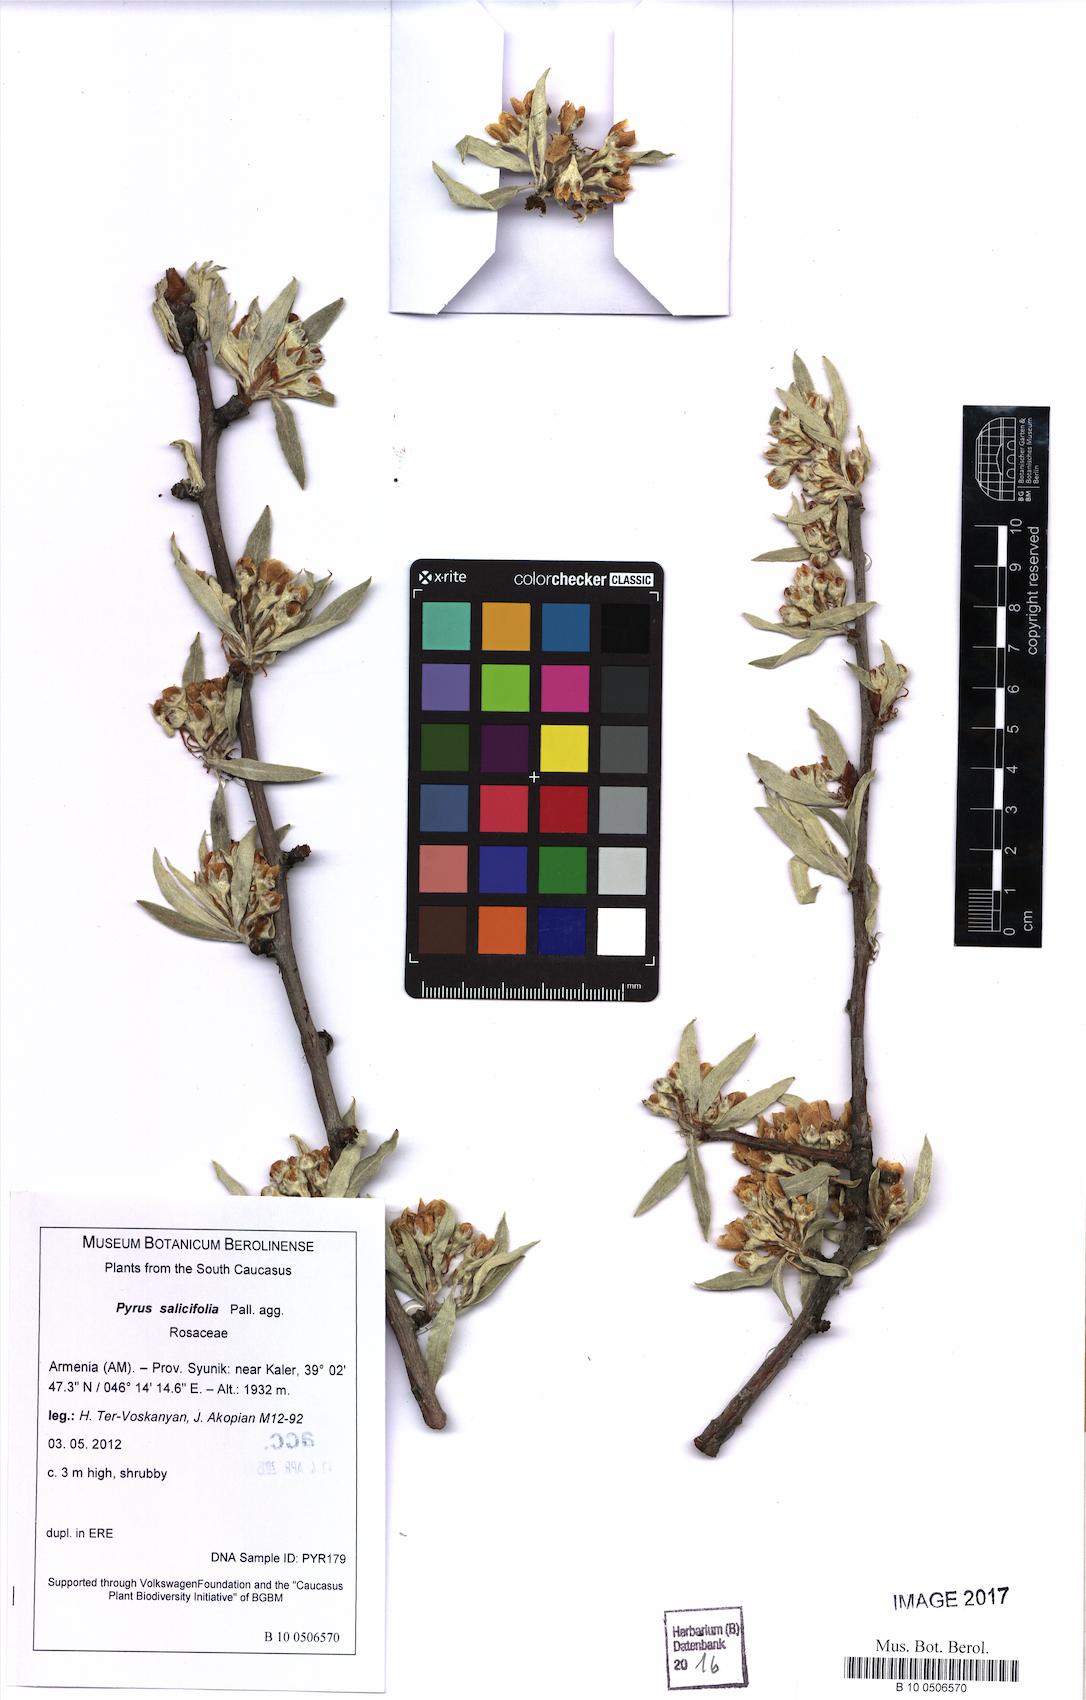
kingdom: Plantae
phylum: Tracheophyta
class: Magnoliopsida
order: Rosales
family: Rosaceae
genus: Pyrus
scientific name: Pyrus salicifolia
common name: Willow-leaved pear
